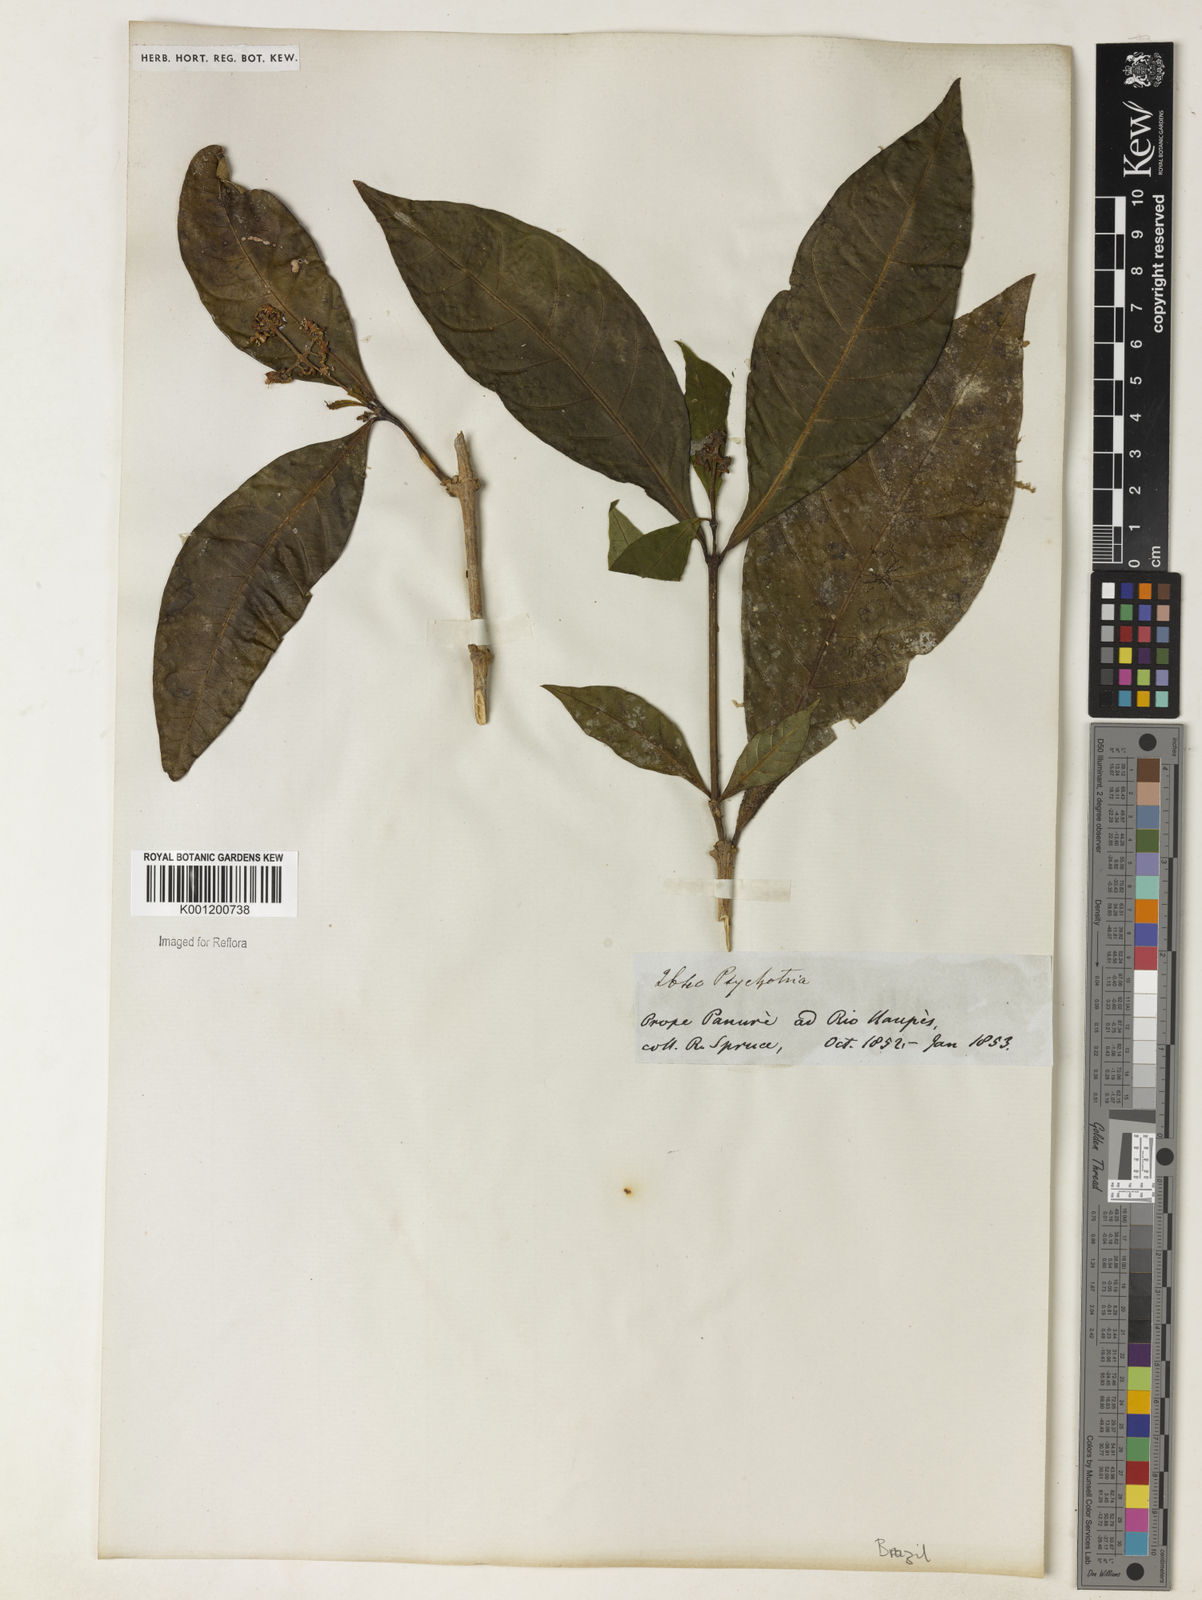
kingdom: Plantae
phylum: Tracheophyta
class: Magnoliopsida
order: Gentianales
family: Rubiaceae
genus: Psychotria
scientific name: Psychotria
